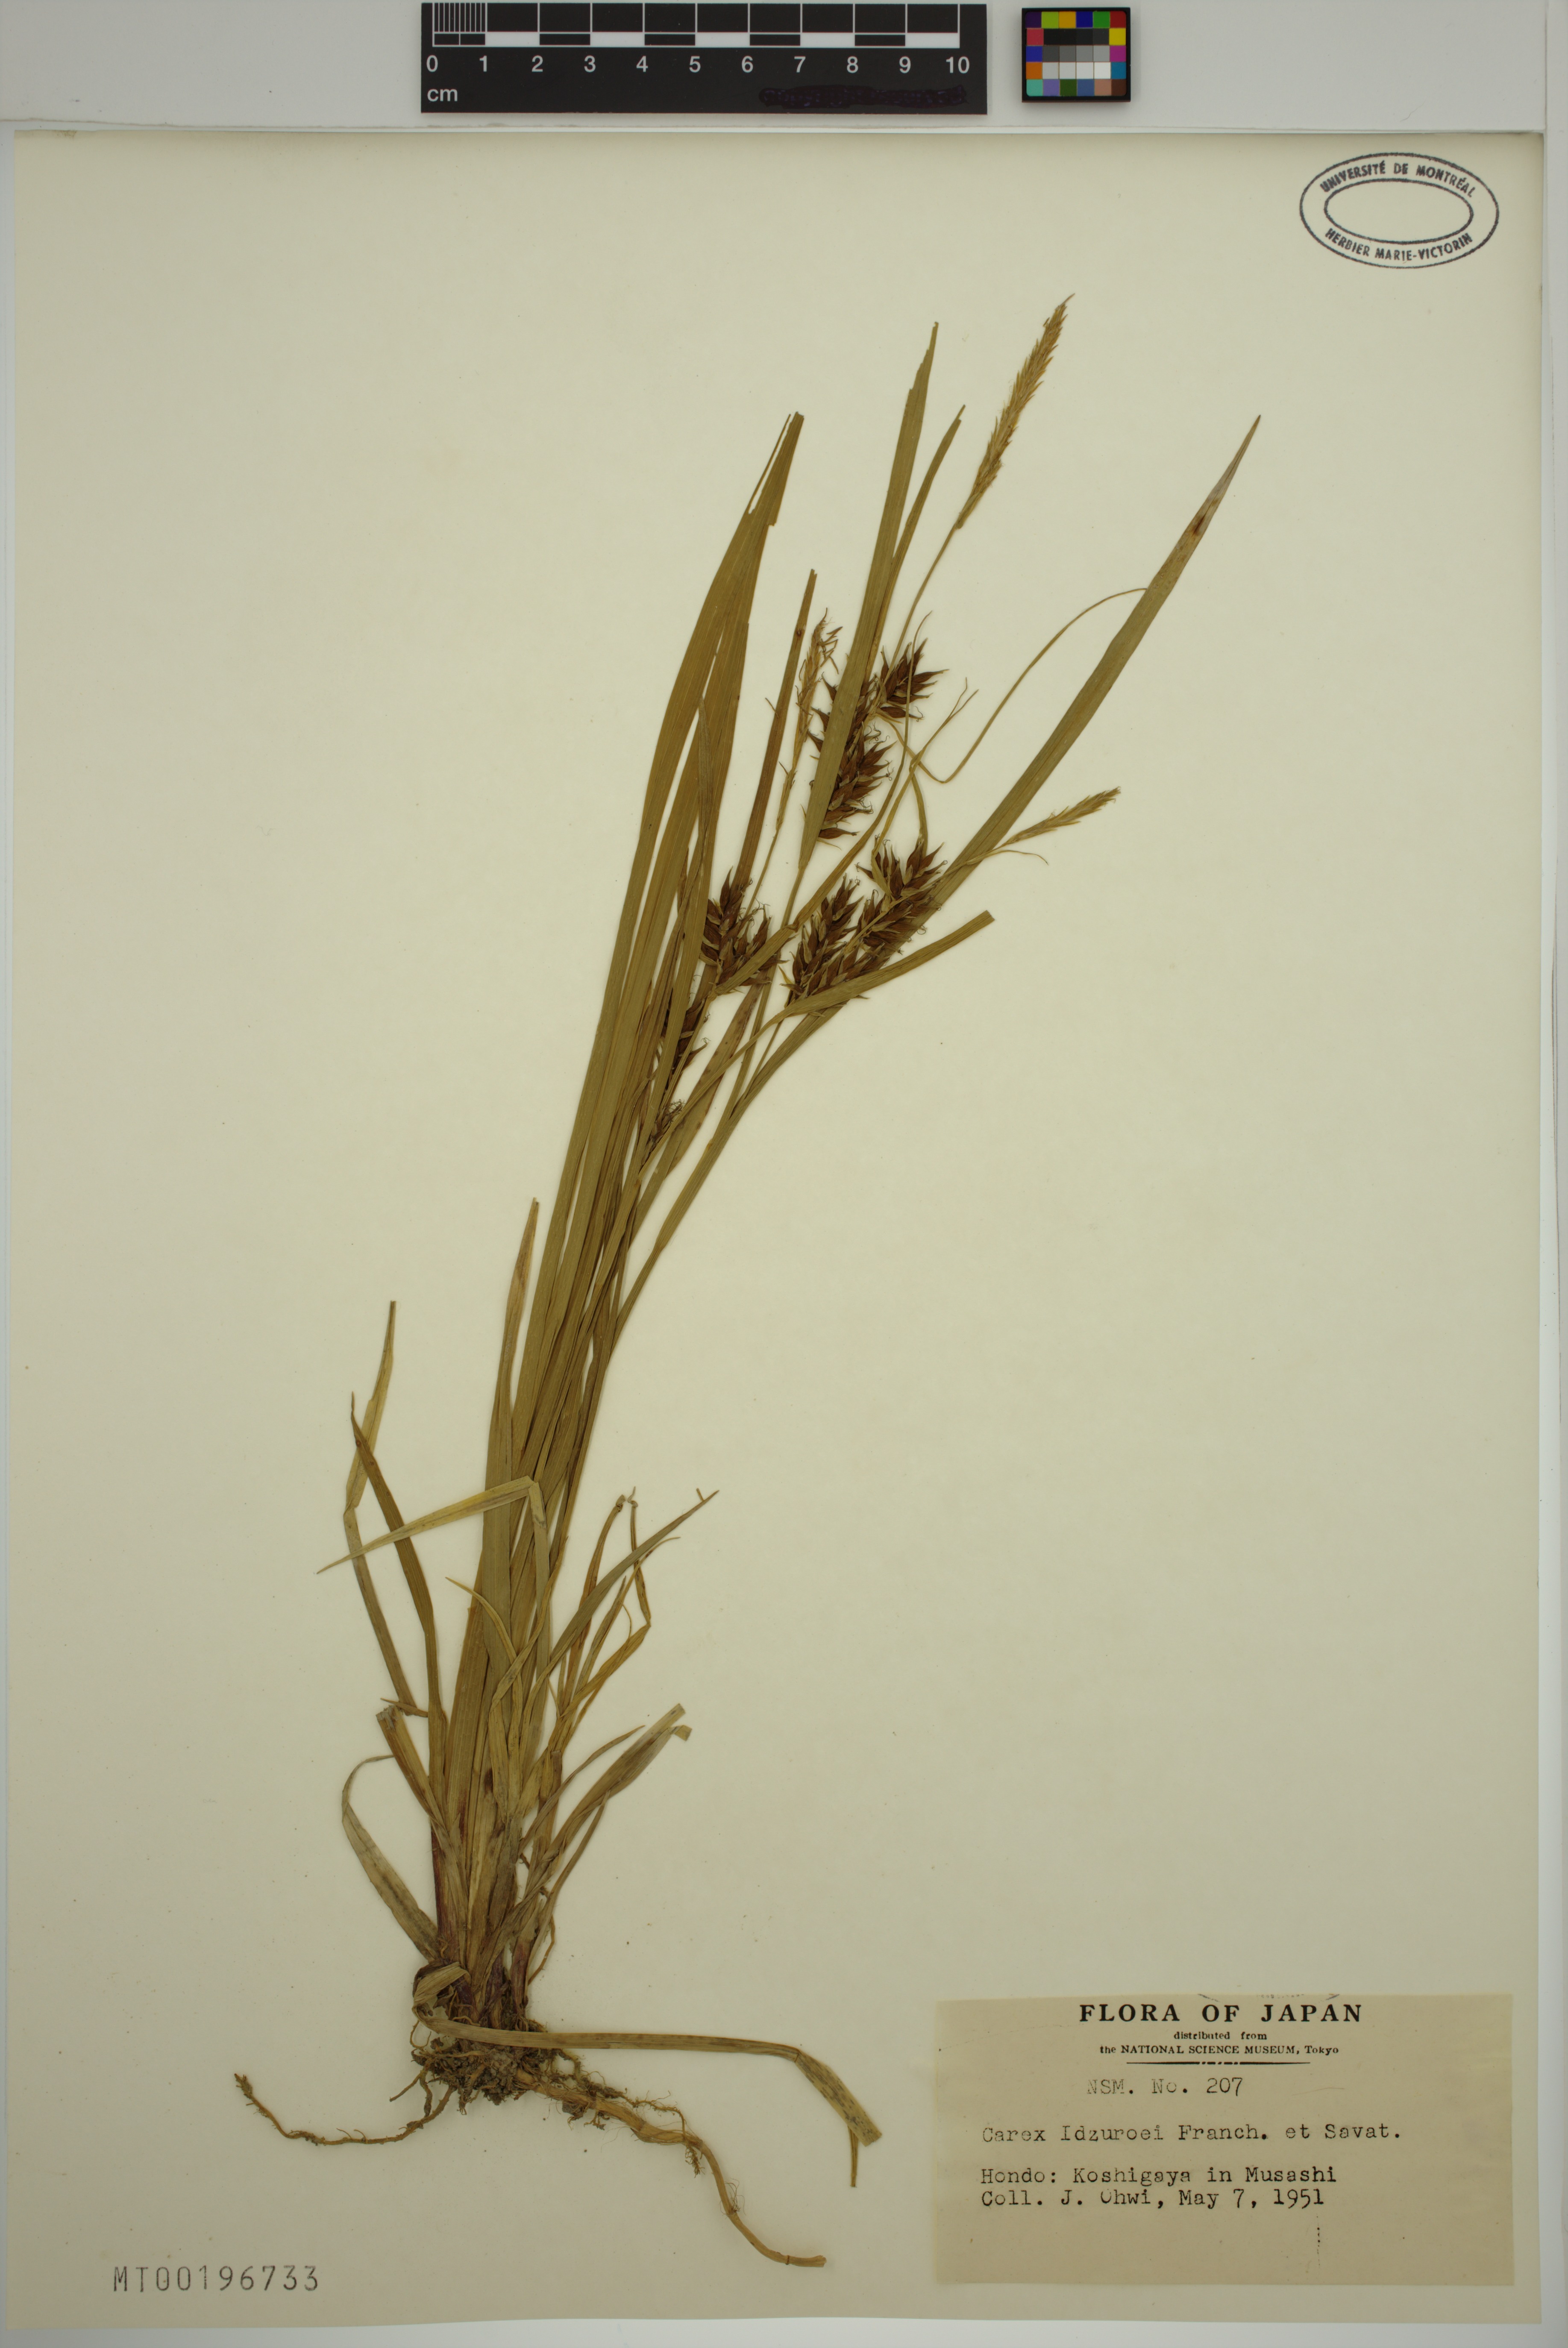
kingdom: Plantae
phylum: Tracheophyta
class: Liliopsida
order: Poales
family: Cyperaceae
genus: Carex
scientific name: Carex idzuroei
